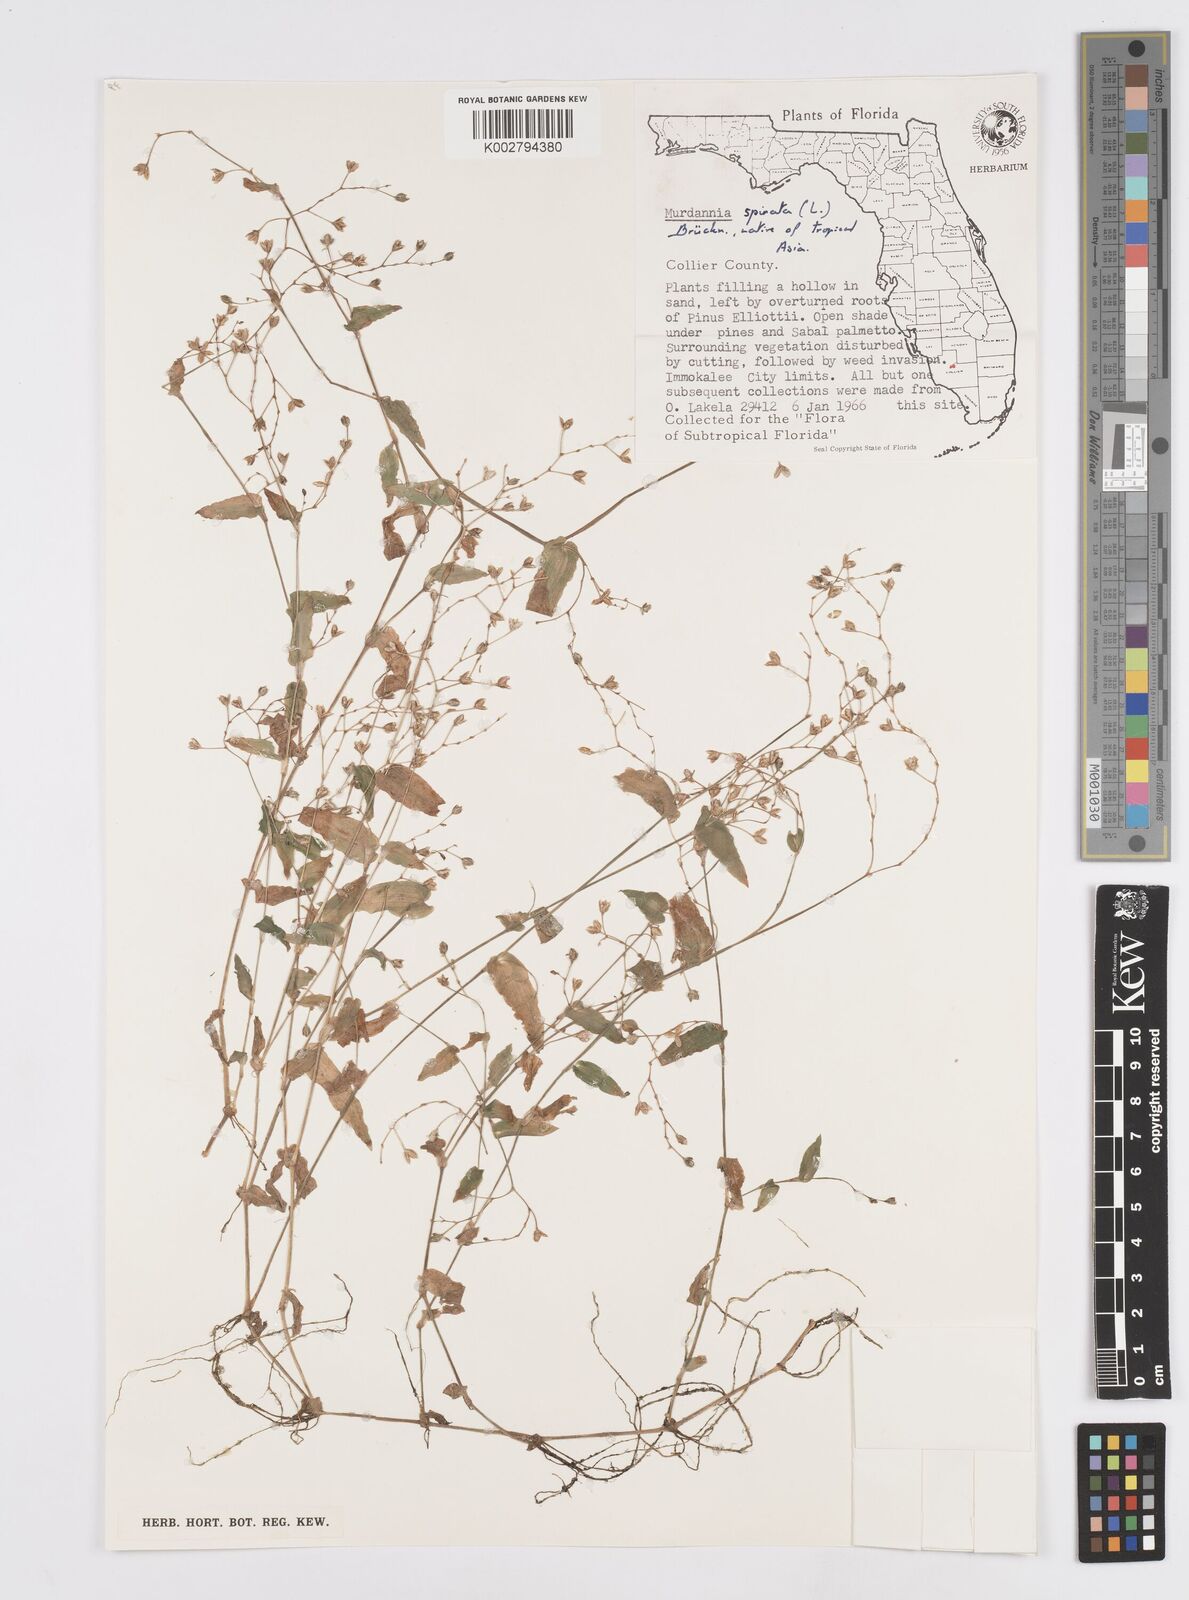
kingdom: Plantae
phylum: Tracheophyta
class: Liliopsida
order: Commelinales
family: Commelinaceae
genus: Murdannia
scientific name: Murdannia spirata
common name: Asiatic dewflower
